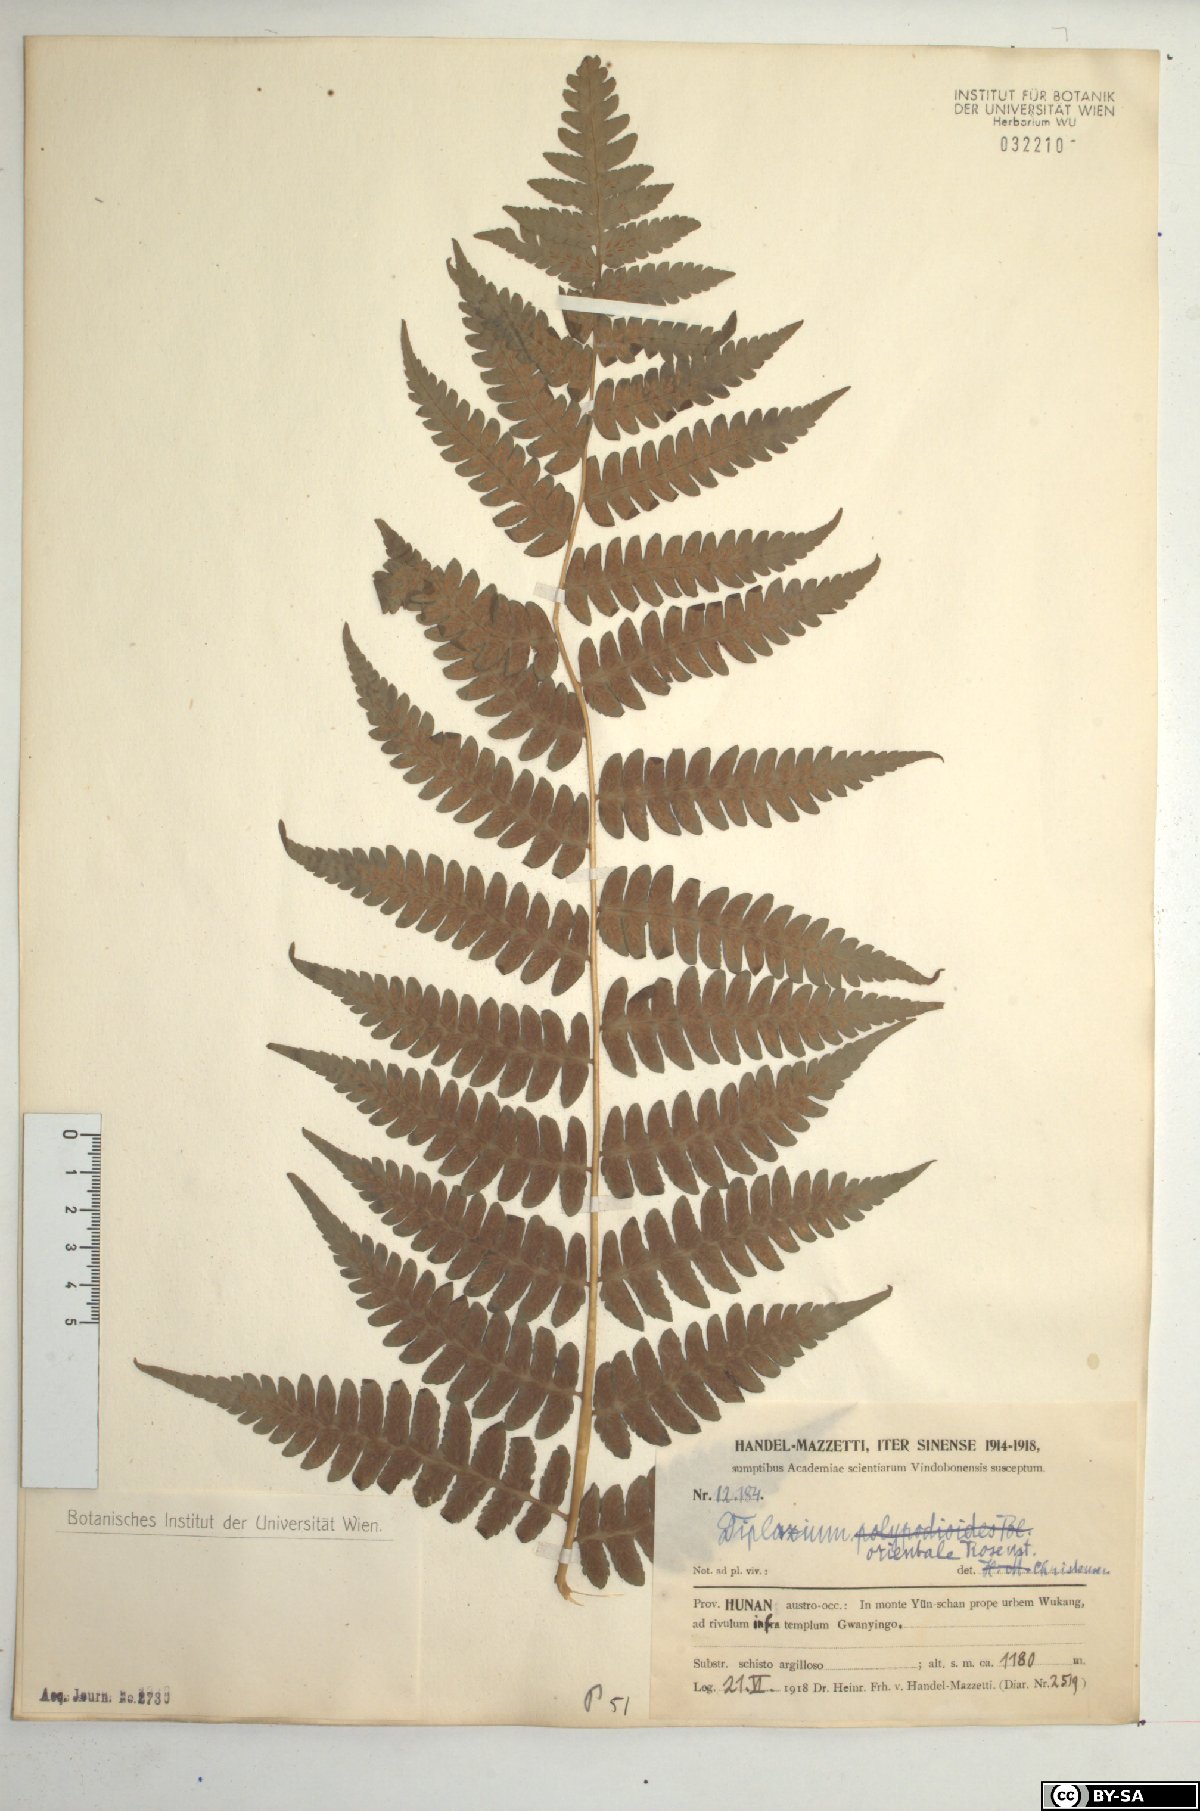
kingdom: Plantae
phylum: Tracheophyta
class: Polypodiopsida
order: Polypodiales
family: Athyriaceae
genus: Diplazium
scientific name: Diplazium chinense
